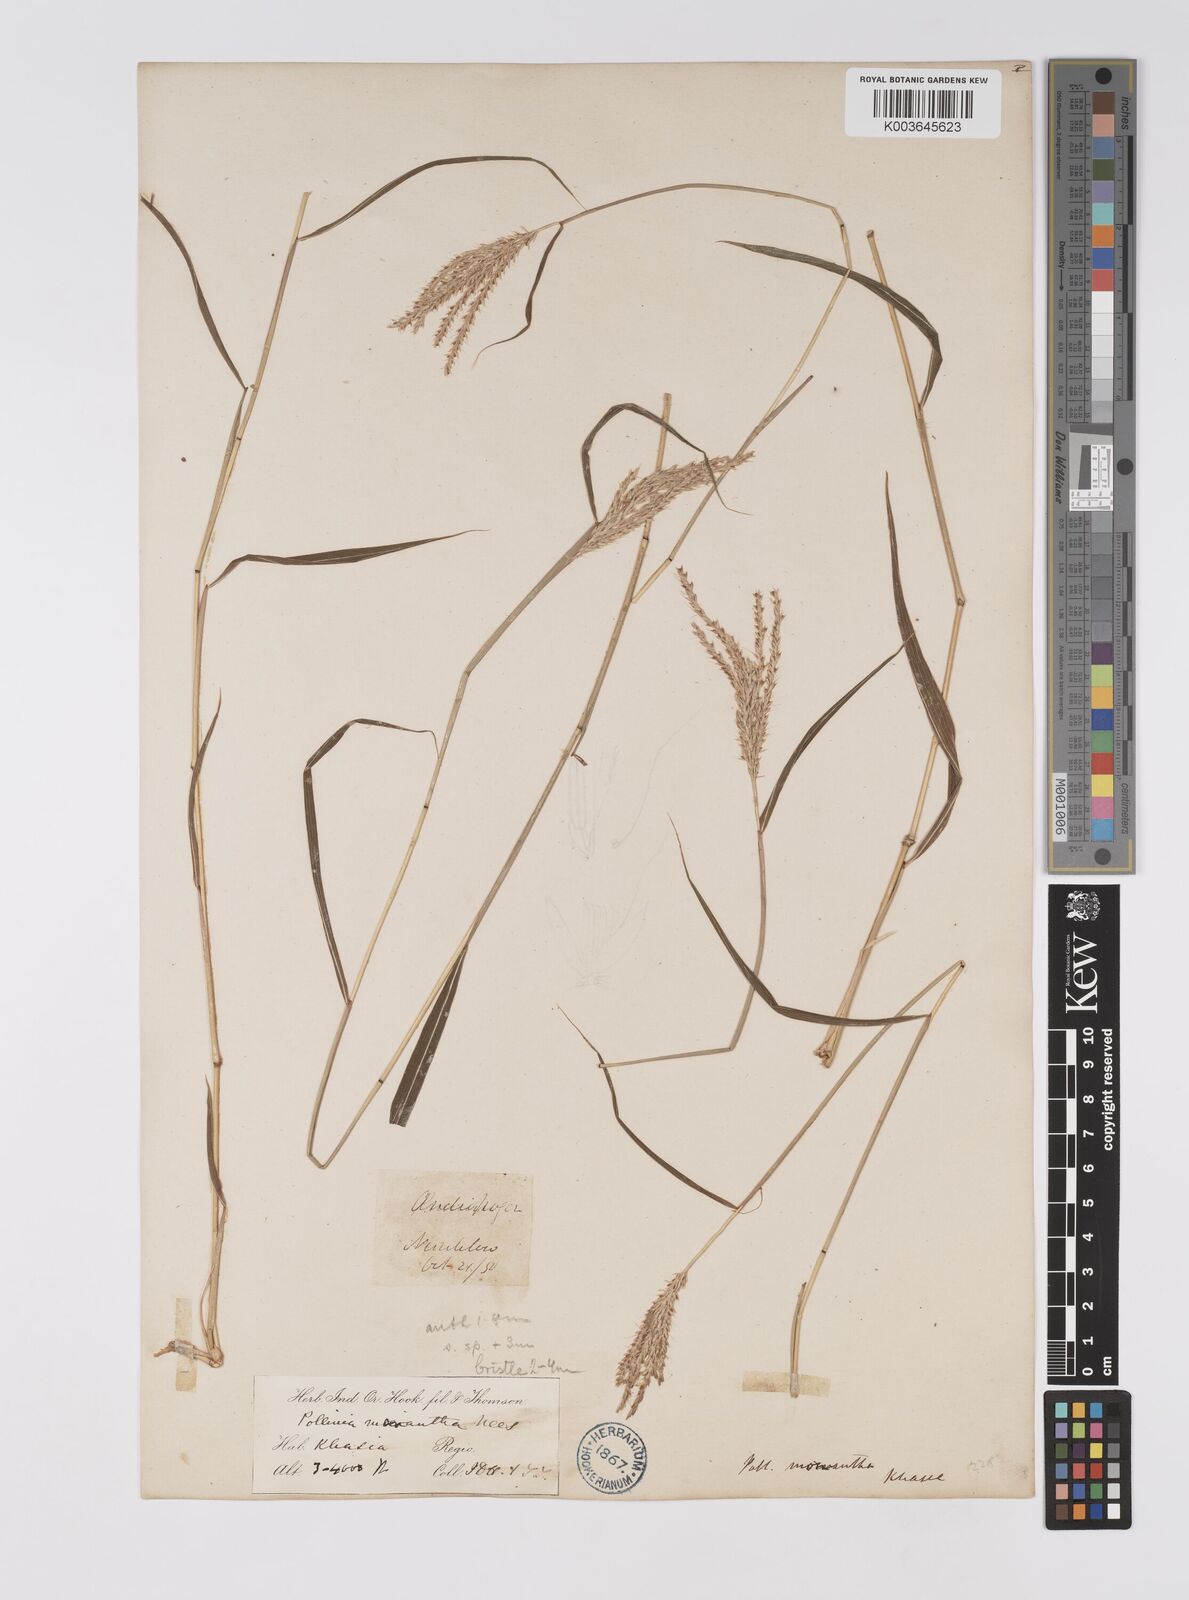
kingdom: Plantae
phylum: Tracheophyta
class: Liliopsida
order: Poales
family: Poaceae
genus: Microstegium
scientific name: Microstegium fasciculatum
